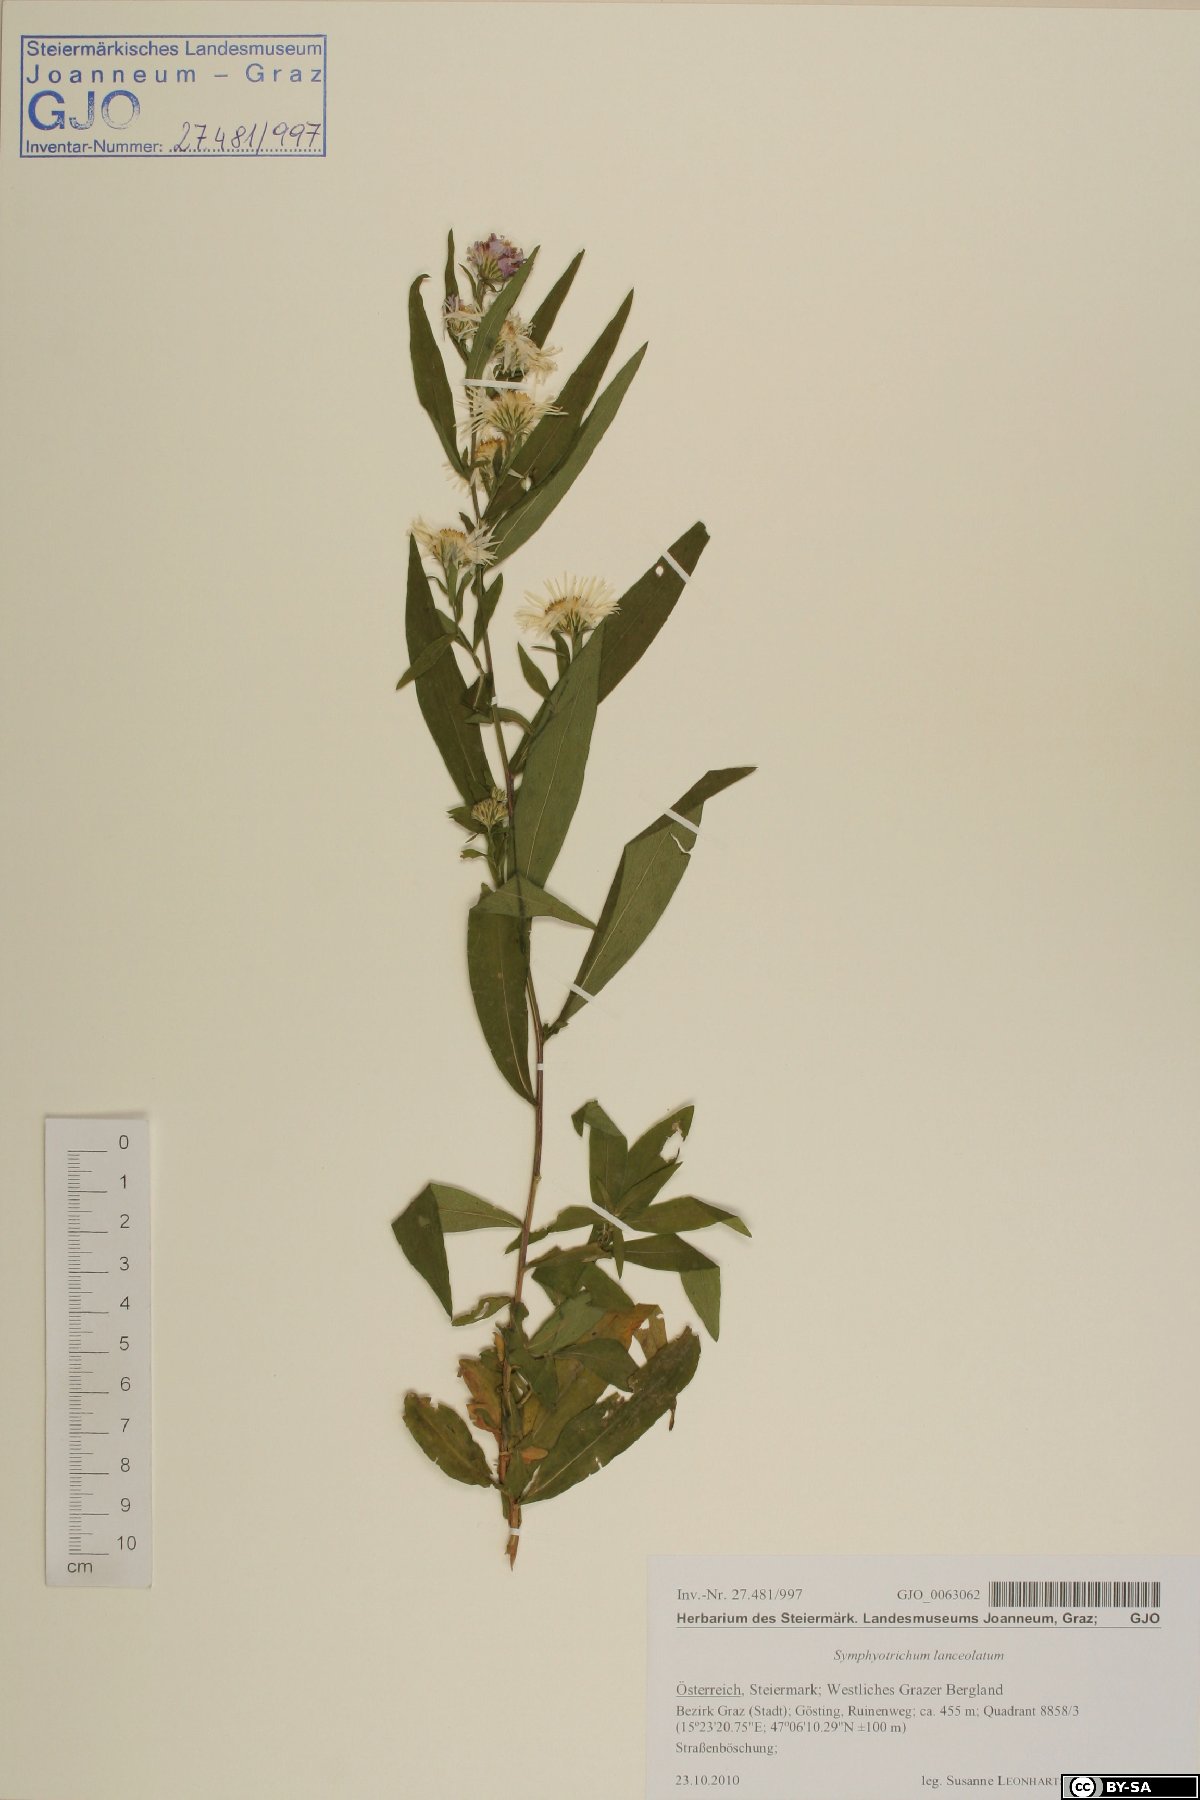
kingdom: Plantae
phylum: Tracheophyta
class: Magnoliopsida
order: Asterales
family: Asteraceae
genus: Symphyotrichum
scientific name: Symphyotrichum lanceolatum
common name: Panicled aster
